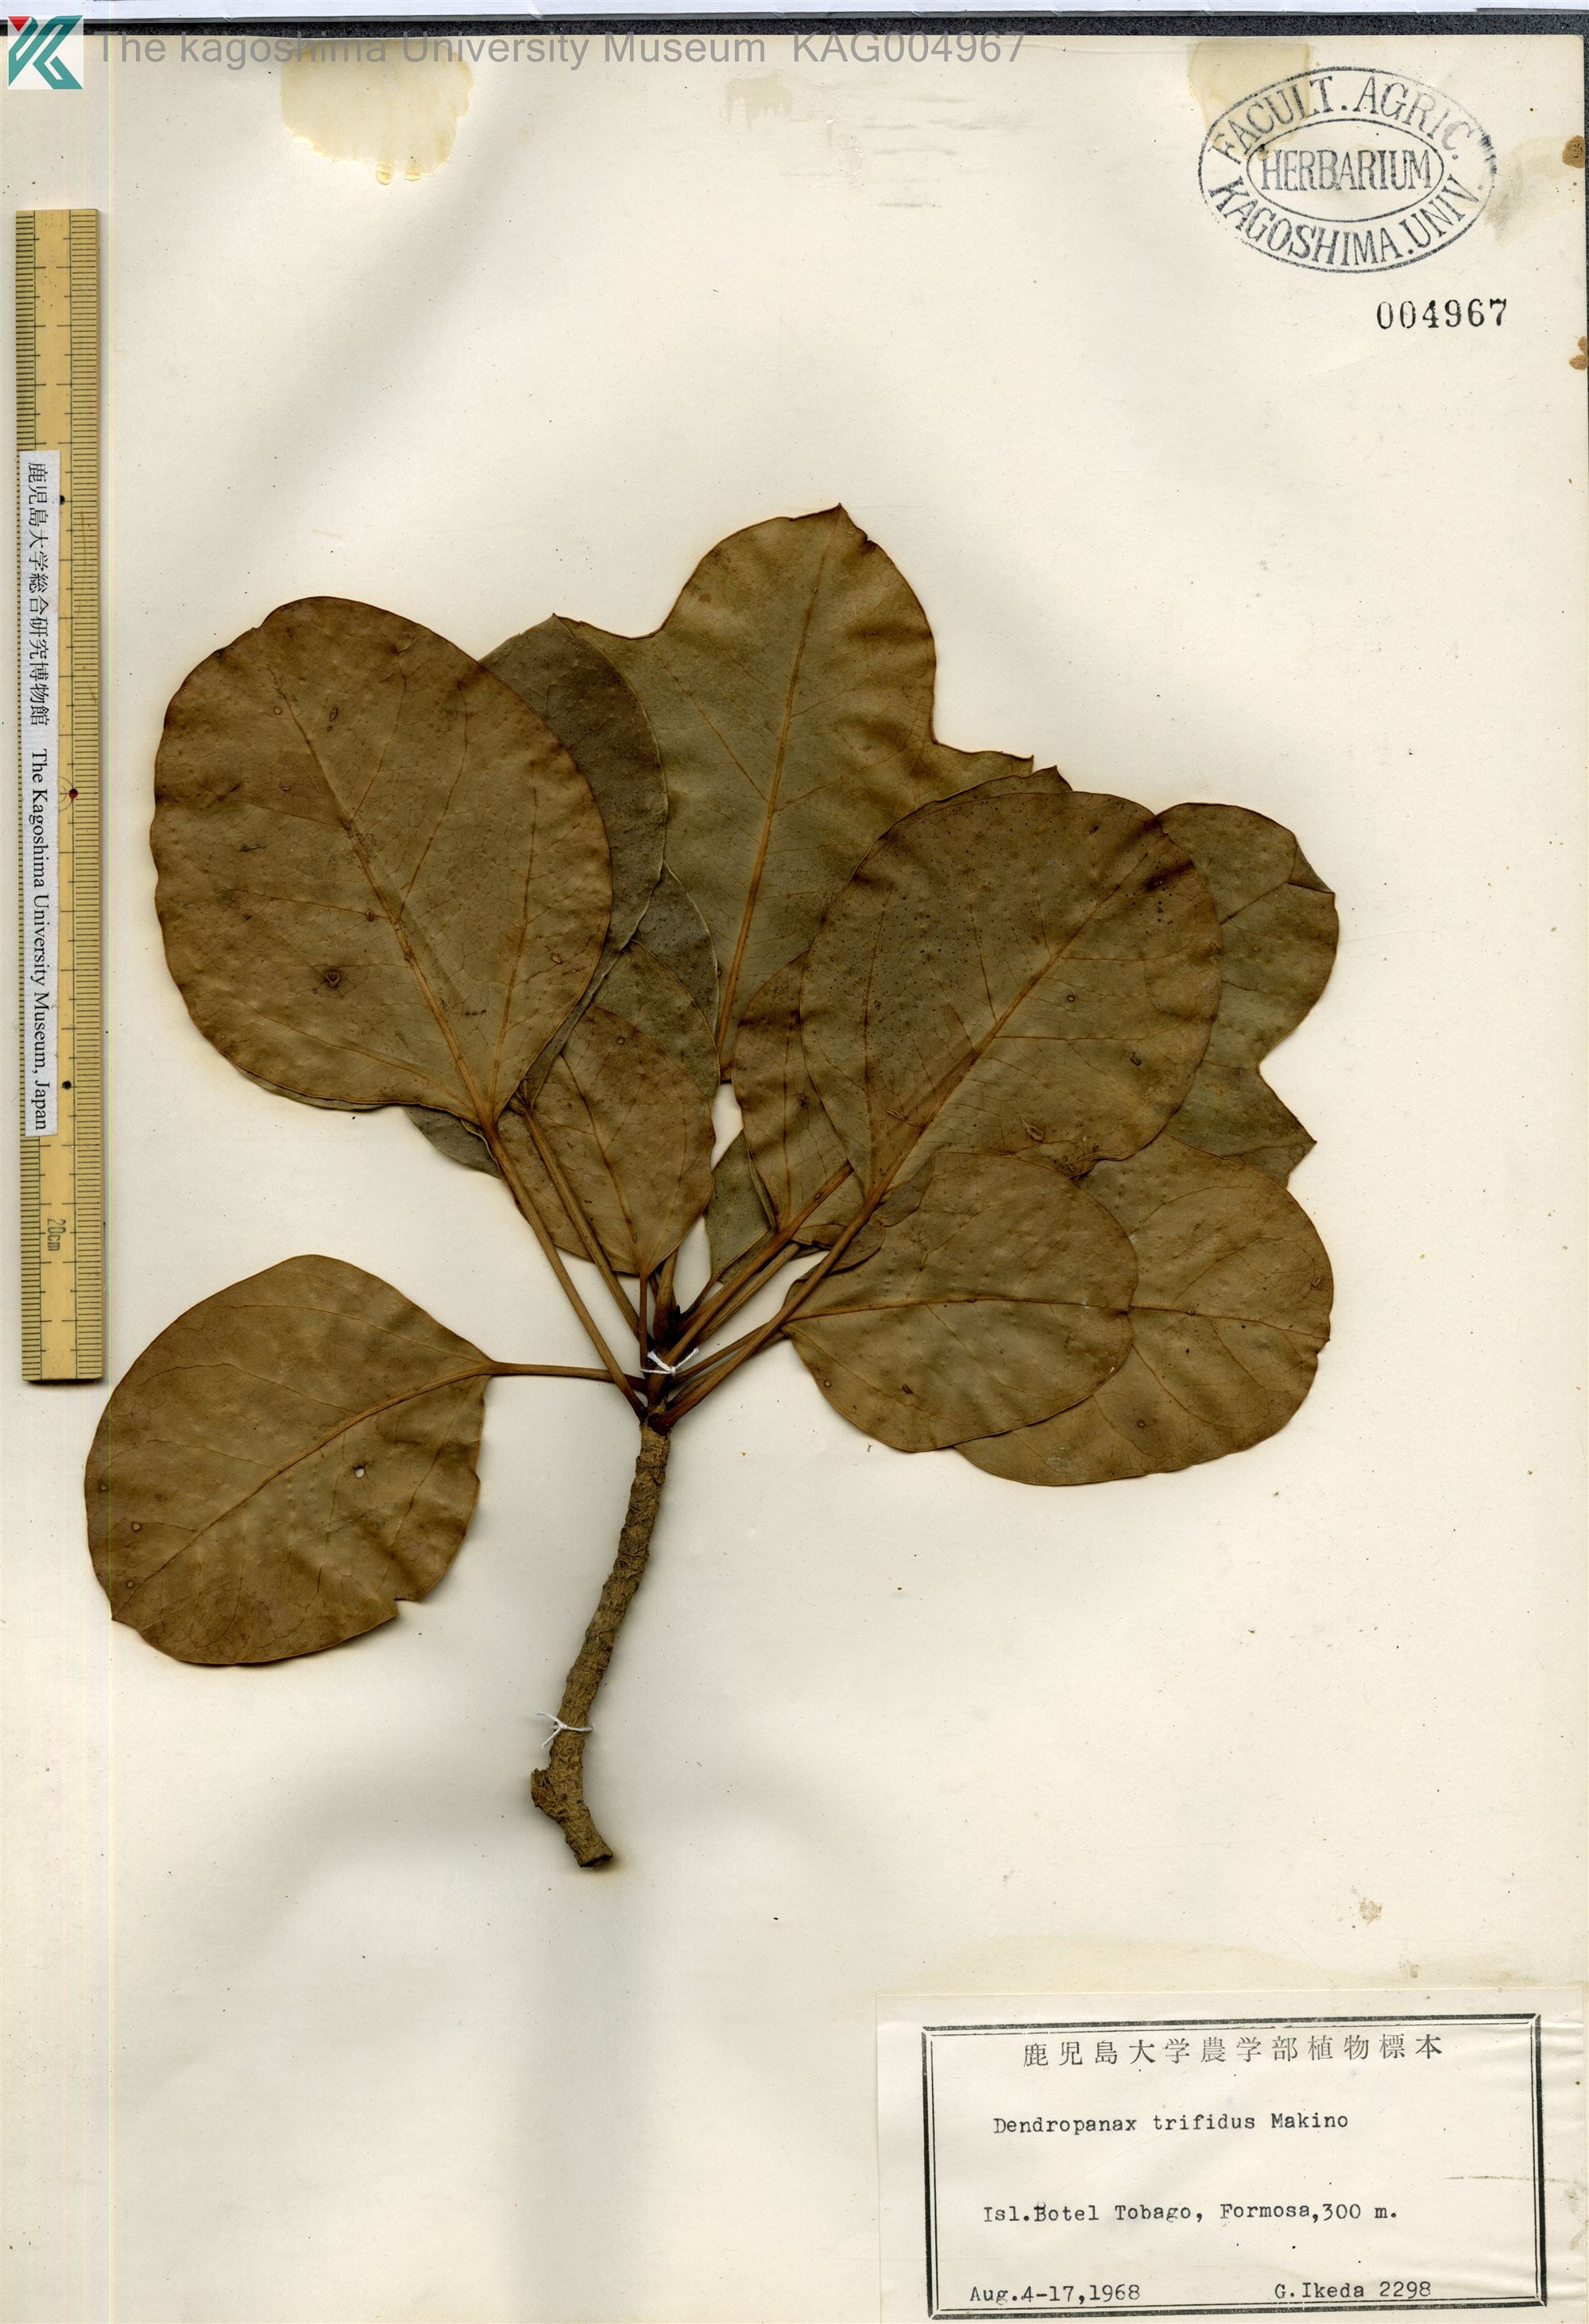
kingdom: Plantae
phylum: Tracheophyta
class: Magnoliopsida
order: Apiales
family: Araliaceae
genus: Dendropanax
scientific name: Dendropanax trifidus
